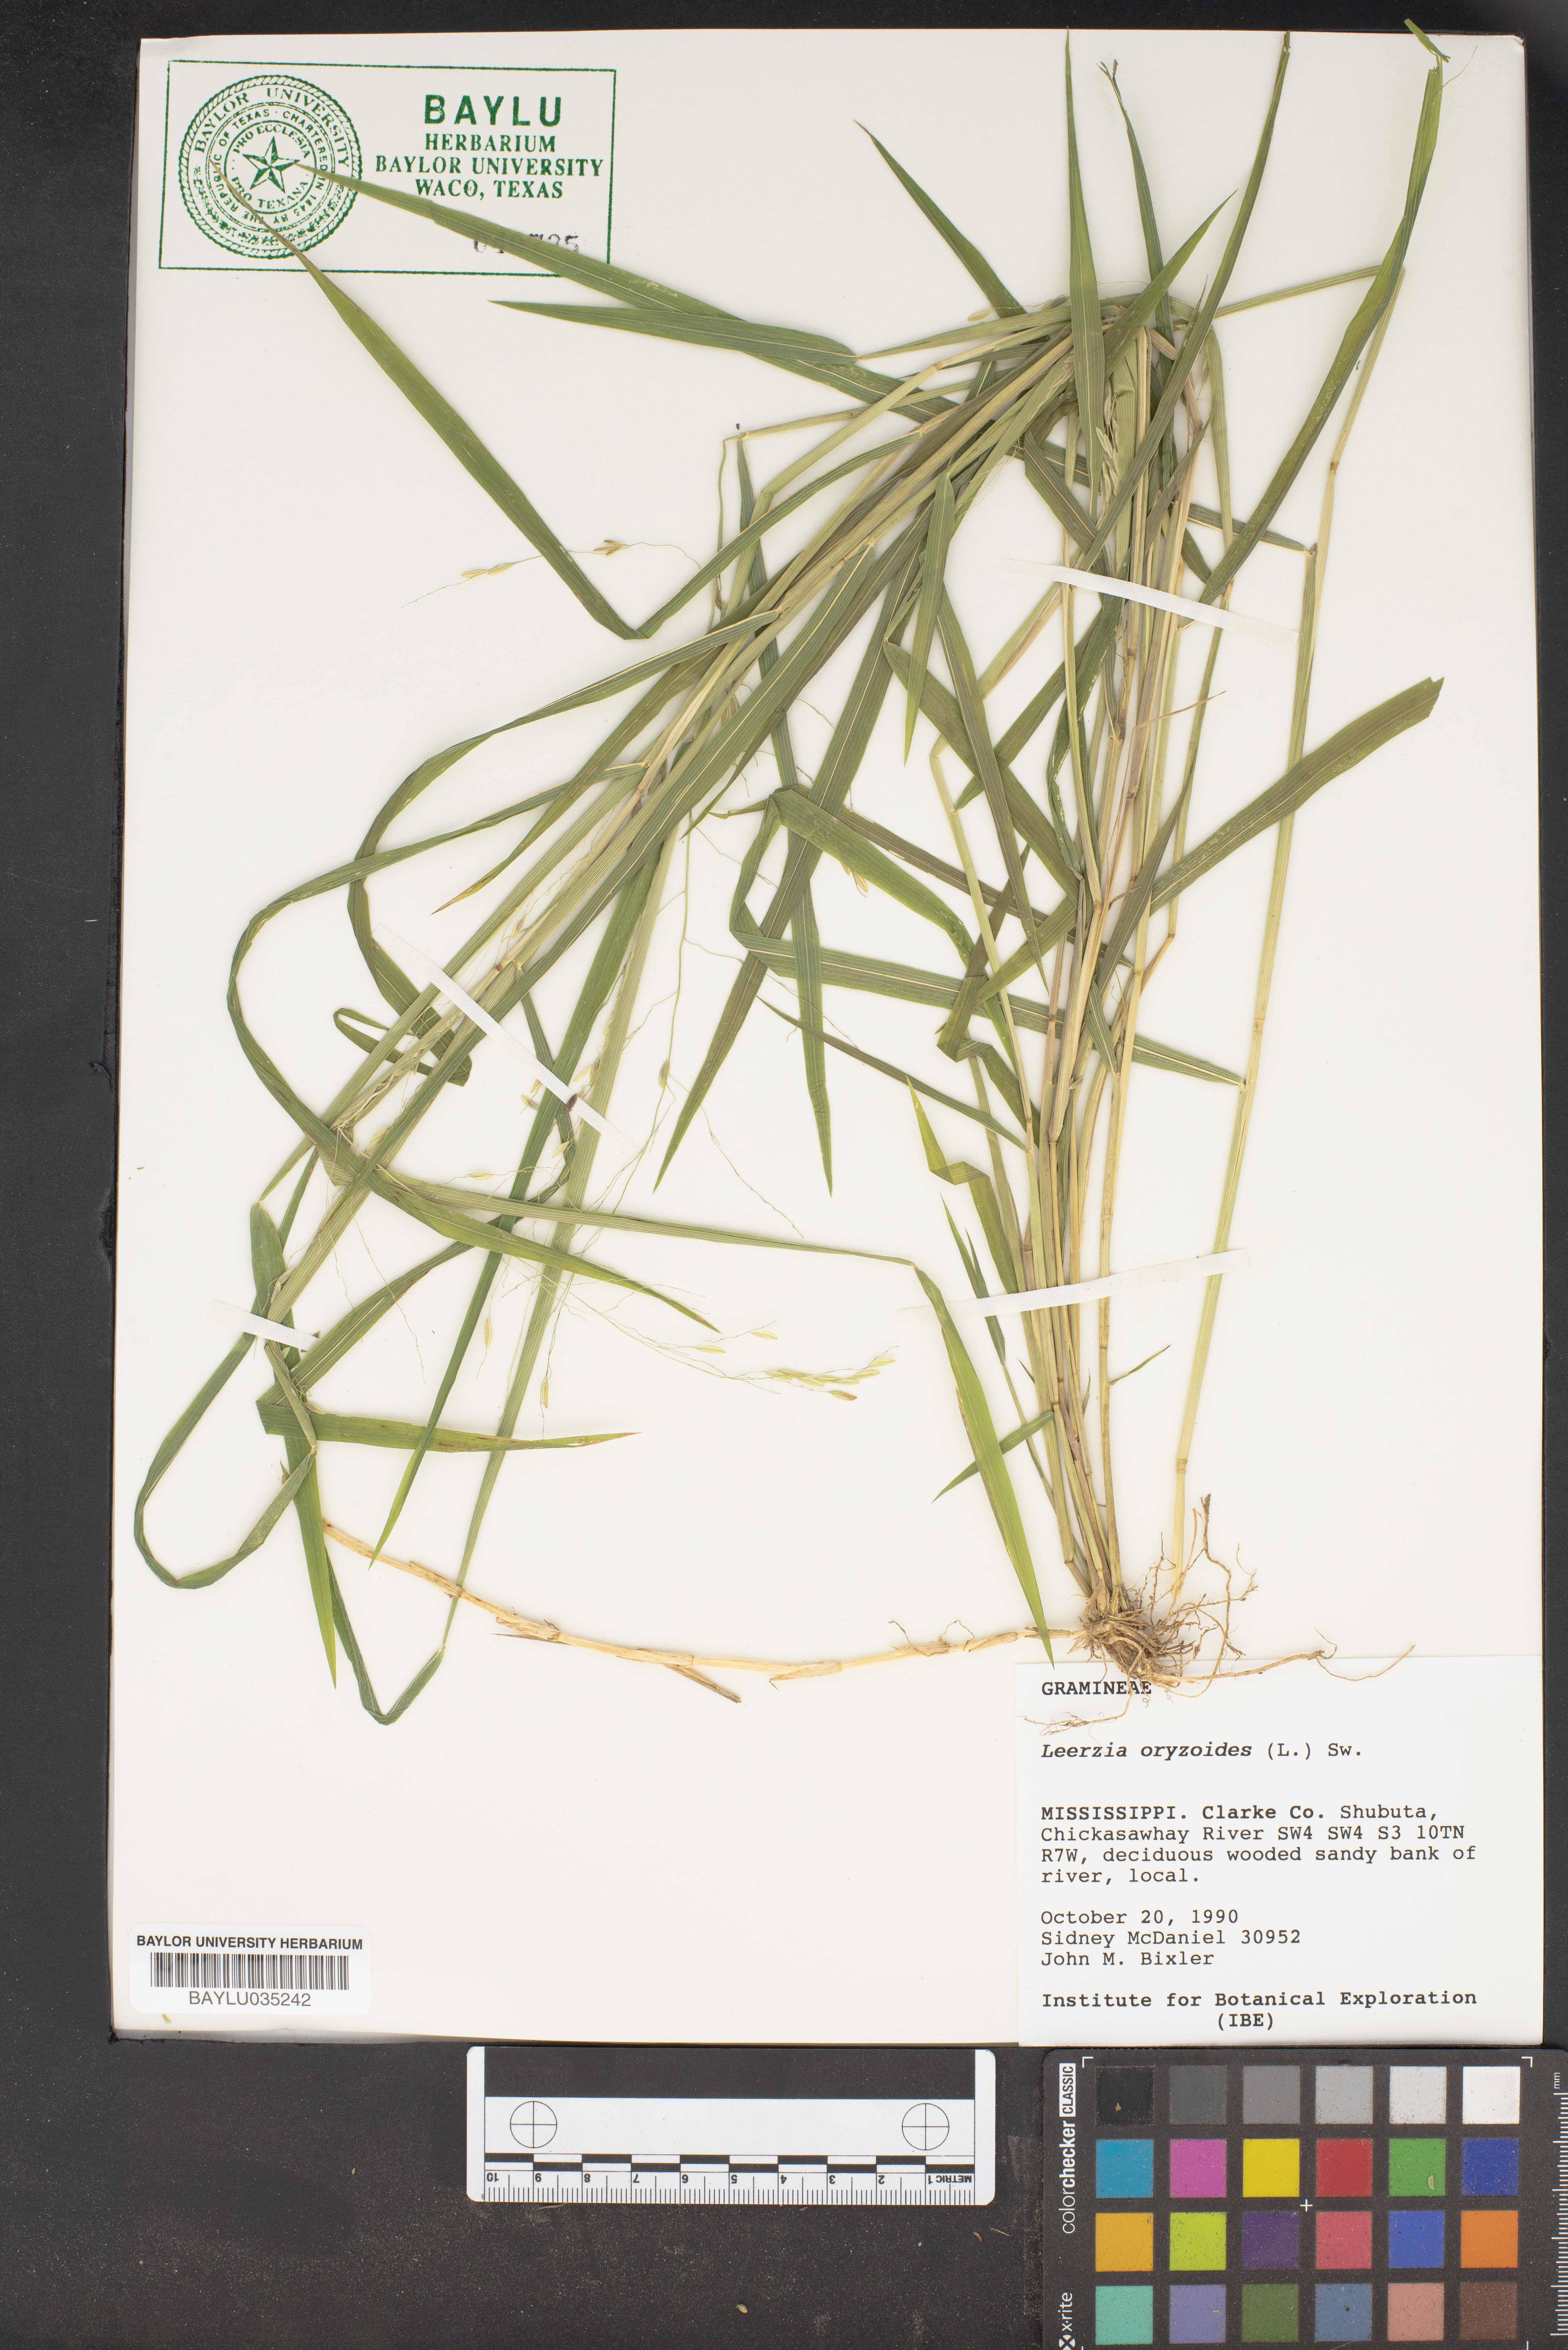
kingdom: Plantae
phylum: Tracheophyta
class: Liliopsida
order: Poales
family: Poaceae
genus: Leersia
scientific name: Leersia oryzoides
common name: Cut-grass
